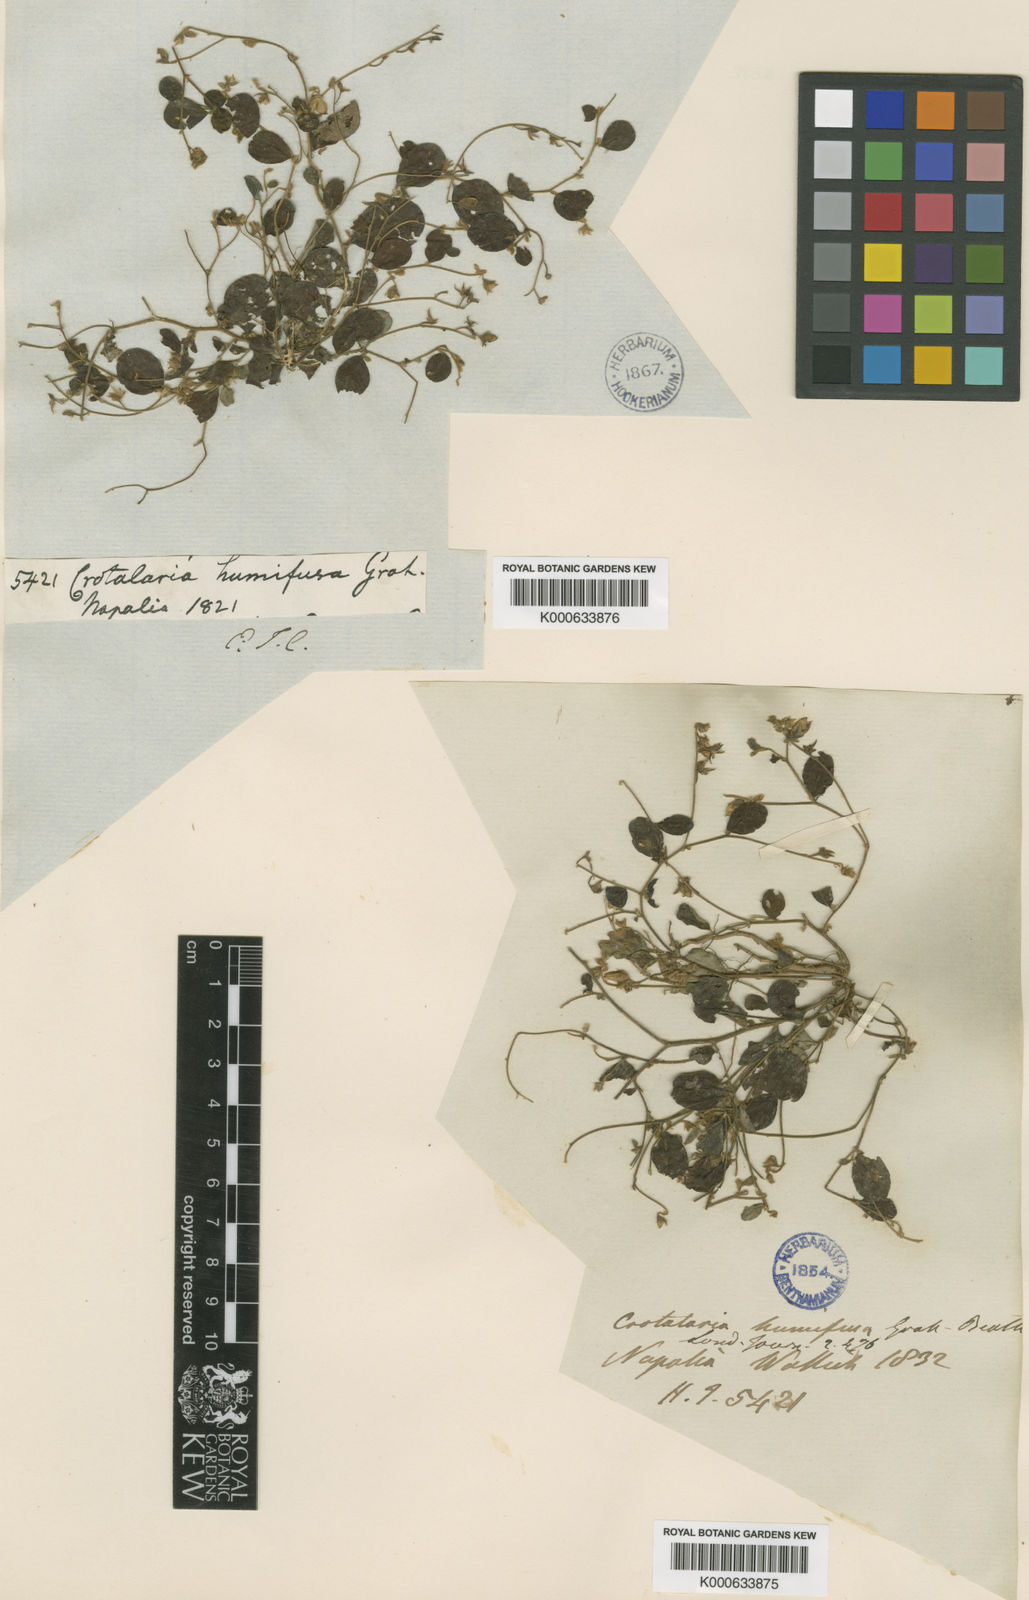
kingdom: Plantae
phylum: Tracheophyta
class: Magnoliopsida
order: Fabales
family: Fabaceae
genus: Crotalaria
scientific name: Crotalaria humifusa
